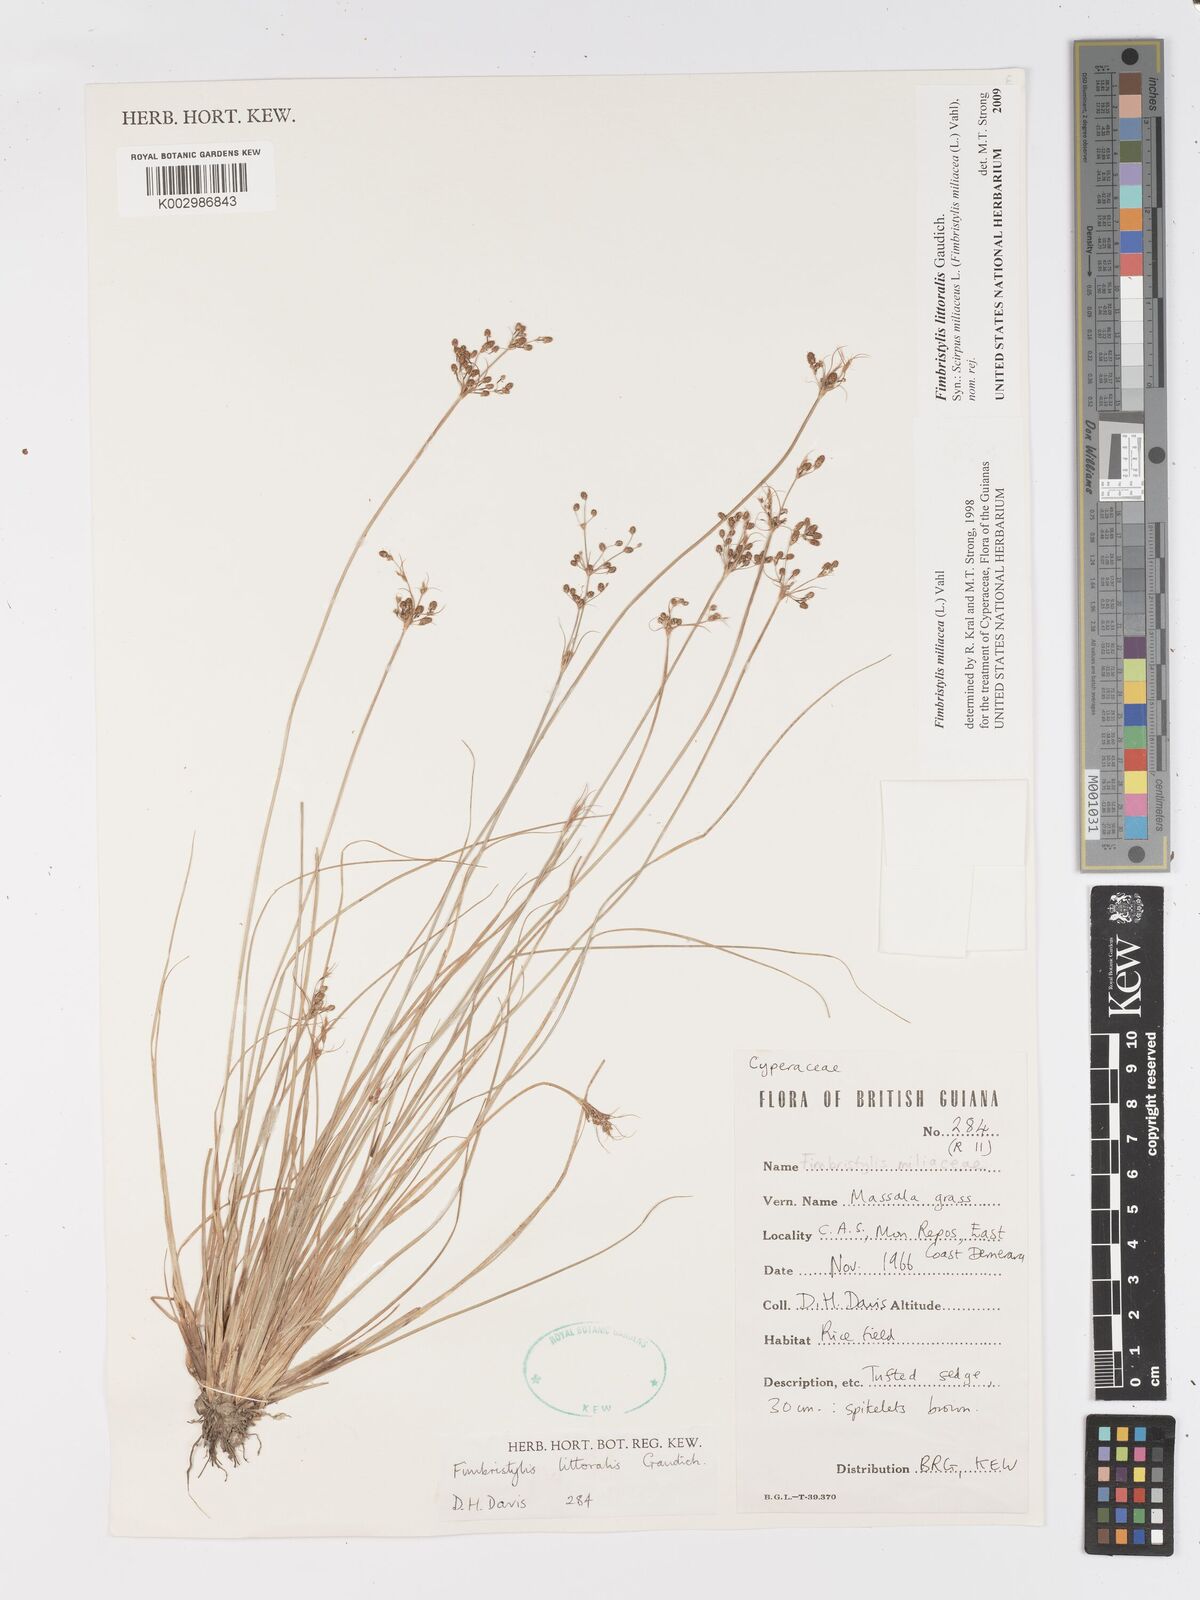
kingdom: Plantae
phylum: Tracheophyta
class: Liliopsida
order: Poales
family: Cyperaceae
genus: Fimbristylis
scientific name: Fimbristylis littoralis
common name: Fimbry
